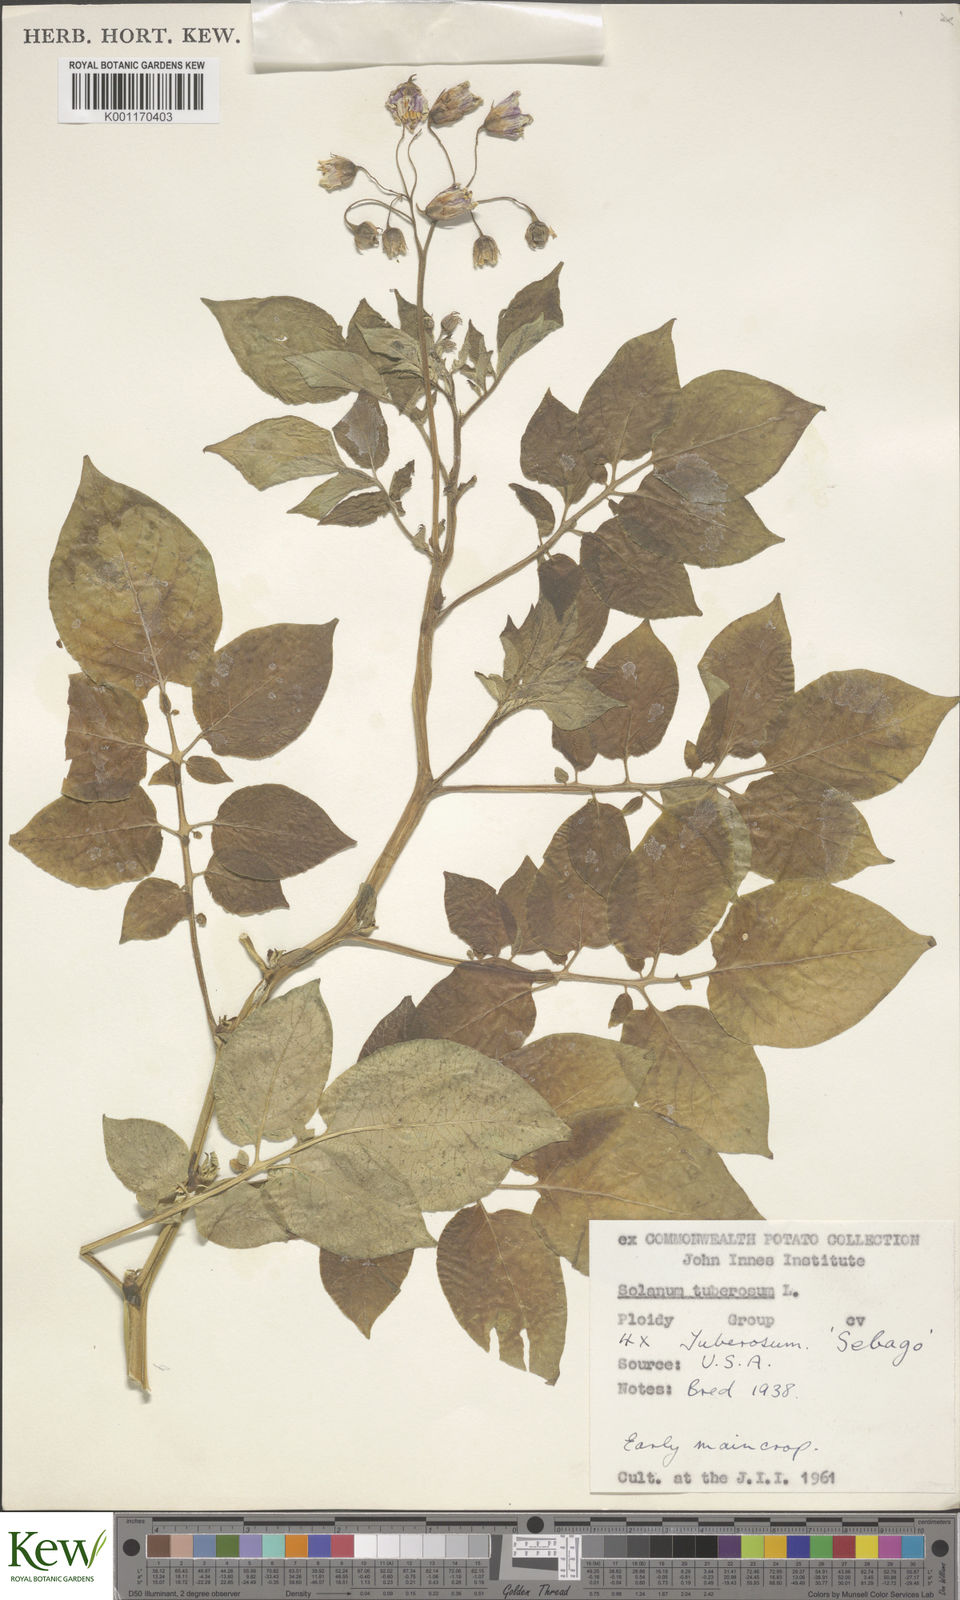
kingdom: Plantae
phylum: Tracheophyta
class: Magnoliopsida
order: Solanales
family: Solanaceae
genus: Solanum
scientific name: Solanum tuberosum
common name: Potato
